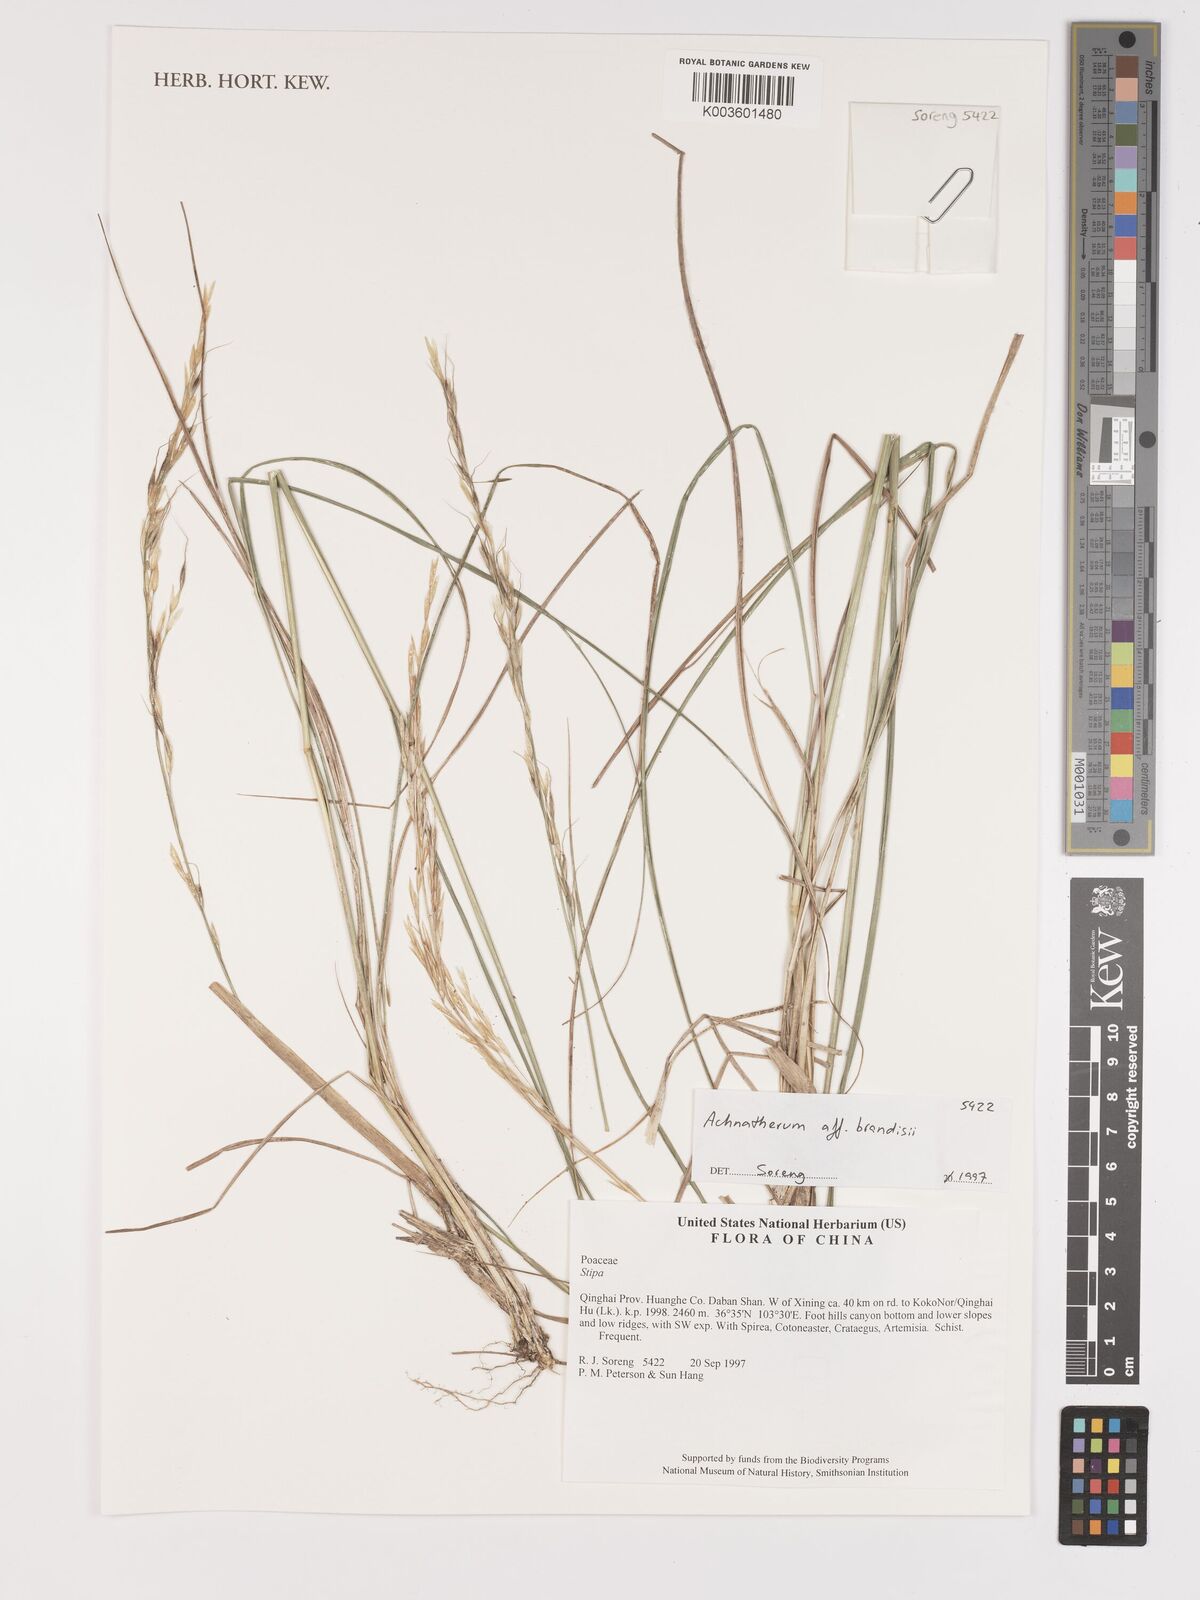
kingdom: Plantae
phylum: Tracheophyta
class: Liliopsida
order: Poales
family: Poaceae
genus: Achnatherum
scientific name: Achnatherum brandisii
